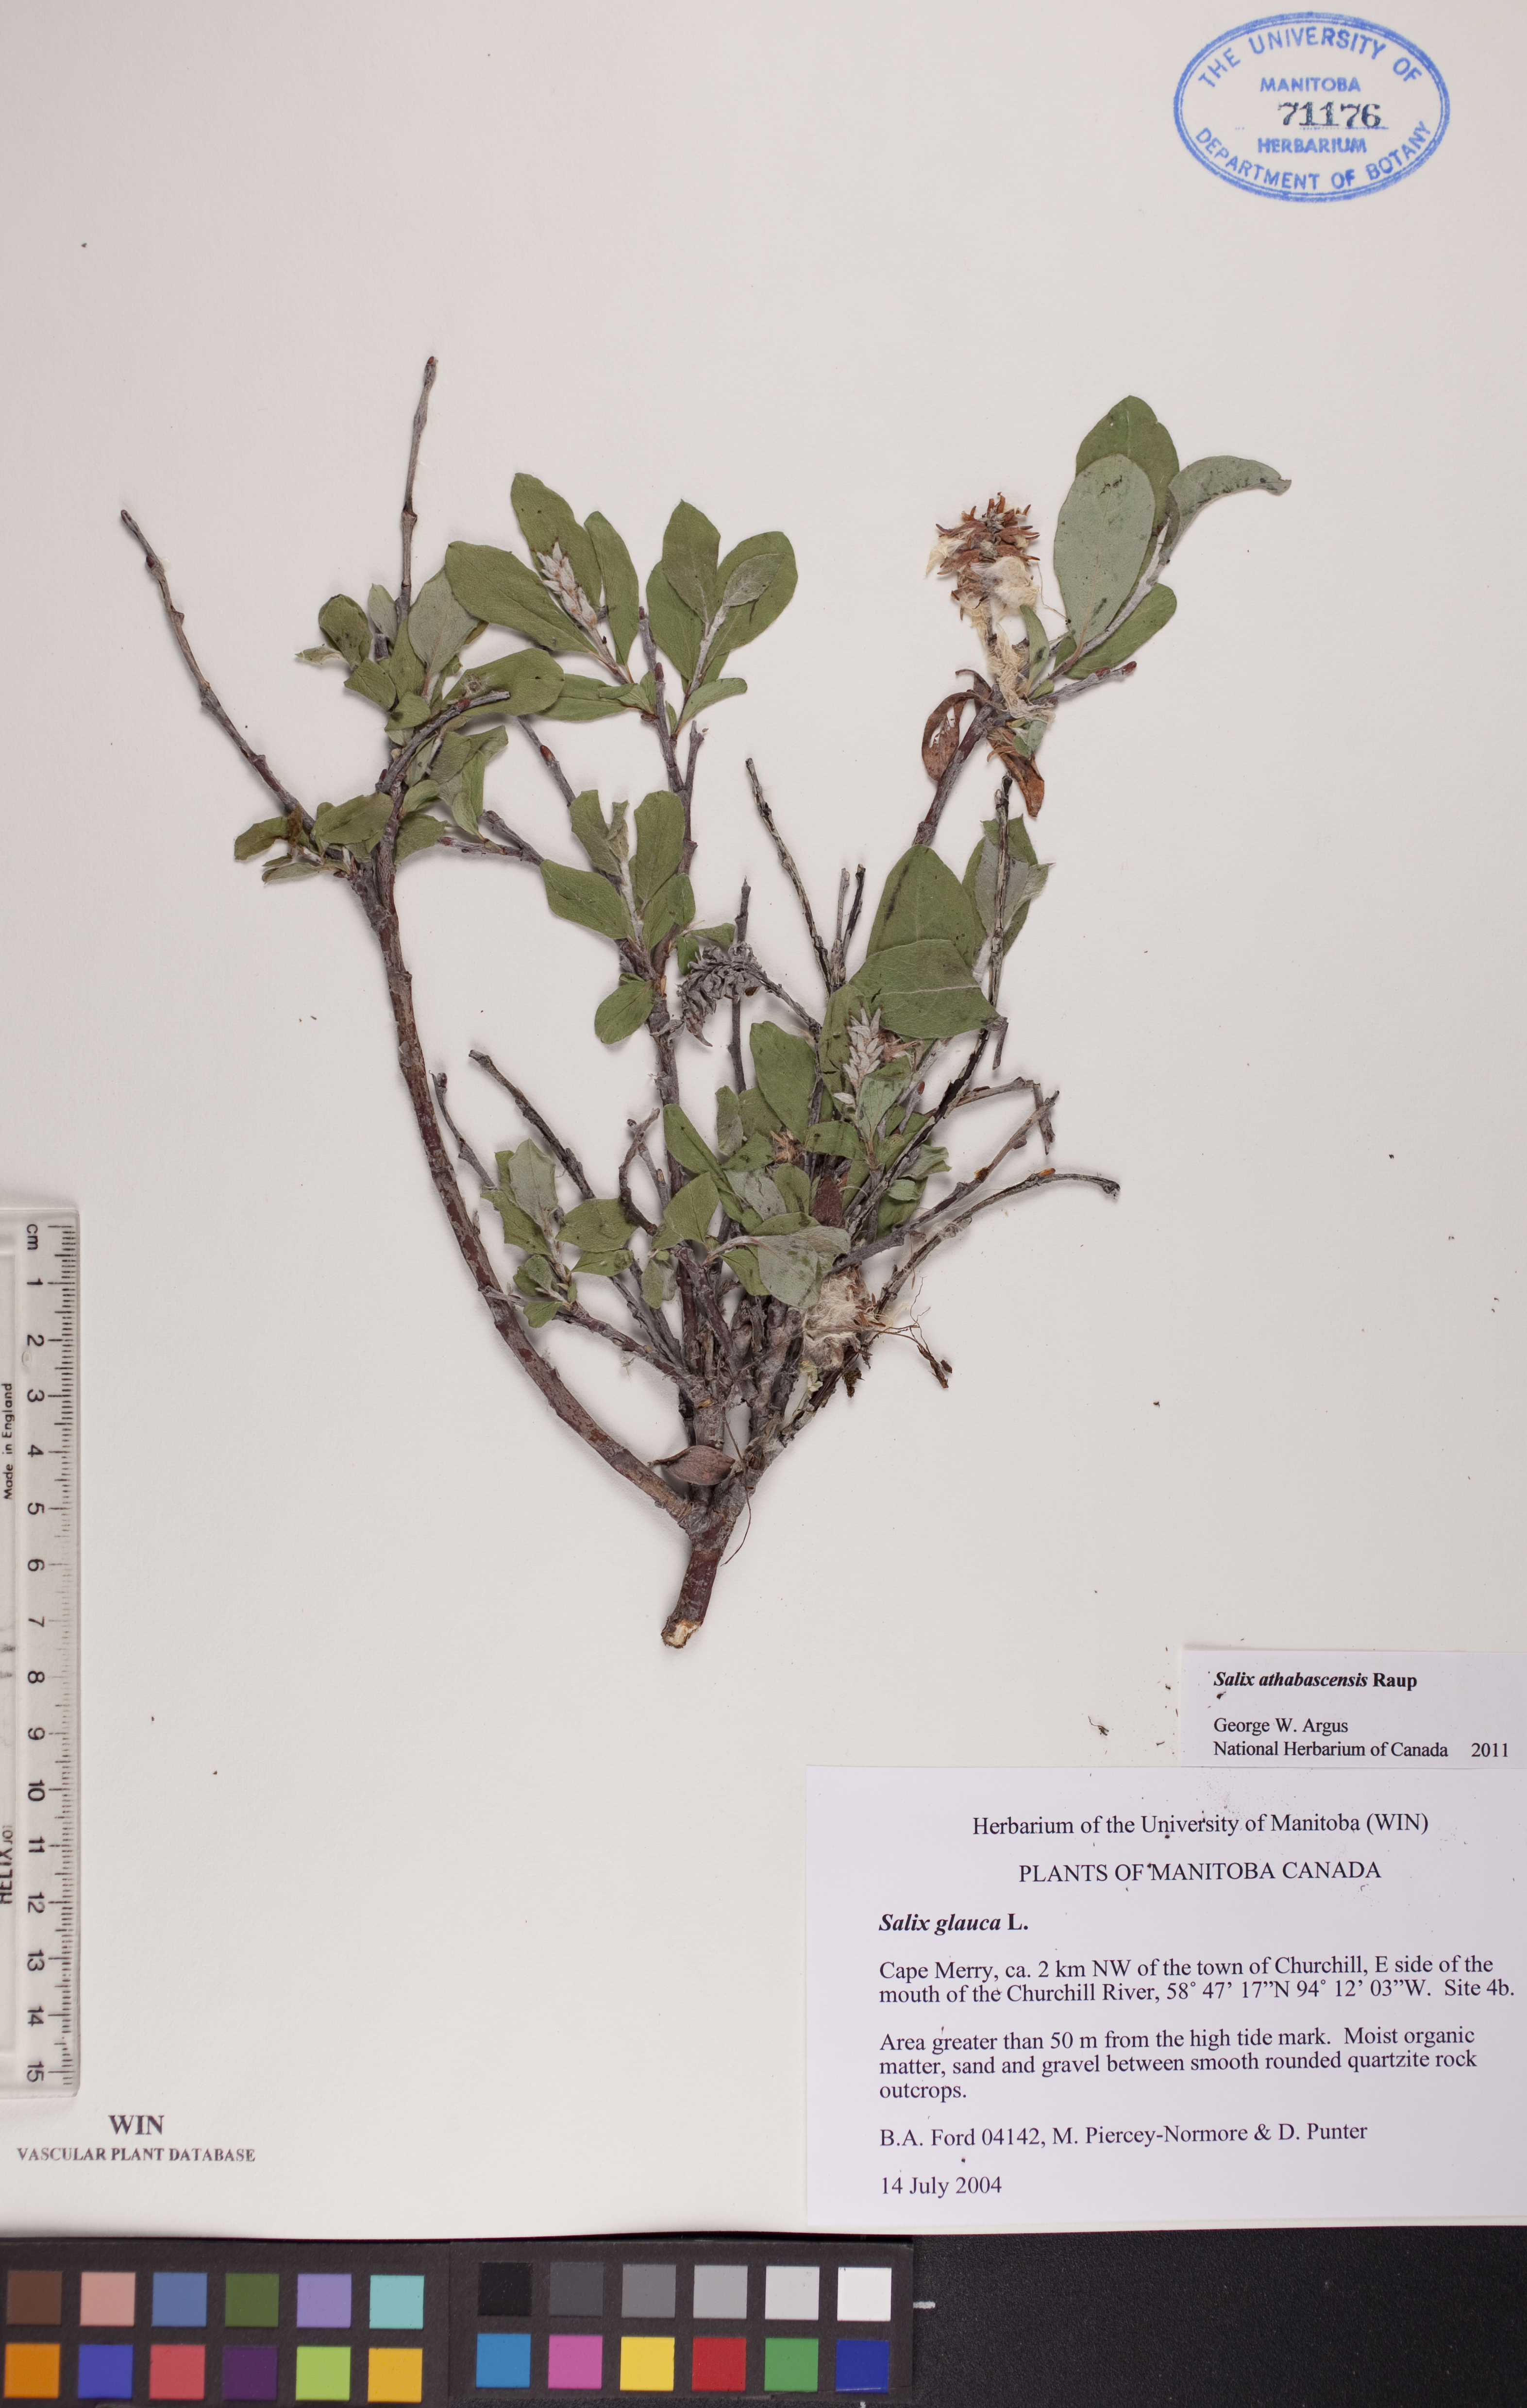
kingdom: Plantae
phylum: Tracheophyta
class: Magnoliopsida
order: Malpighiales
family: Salicaceae
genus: Salix
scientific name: Salix athabascensis
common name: Athabasca willow
